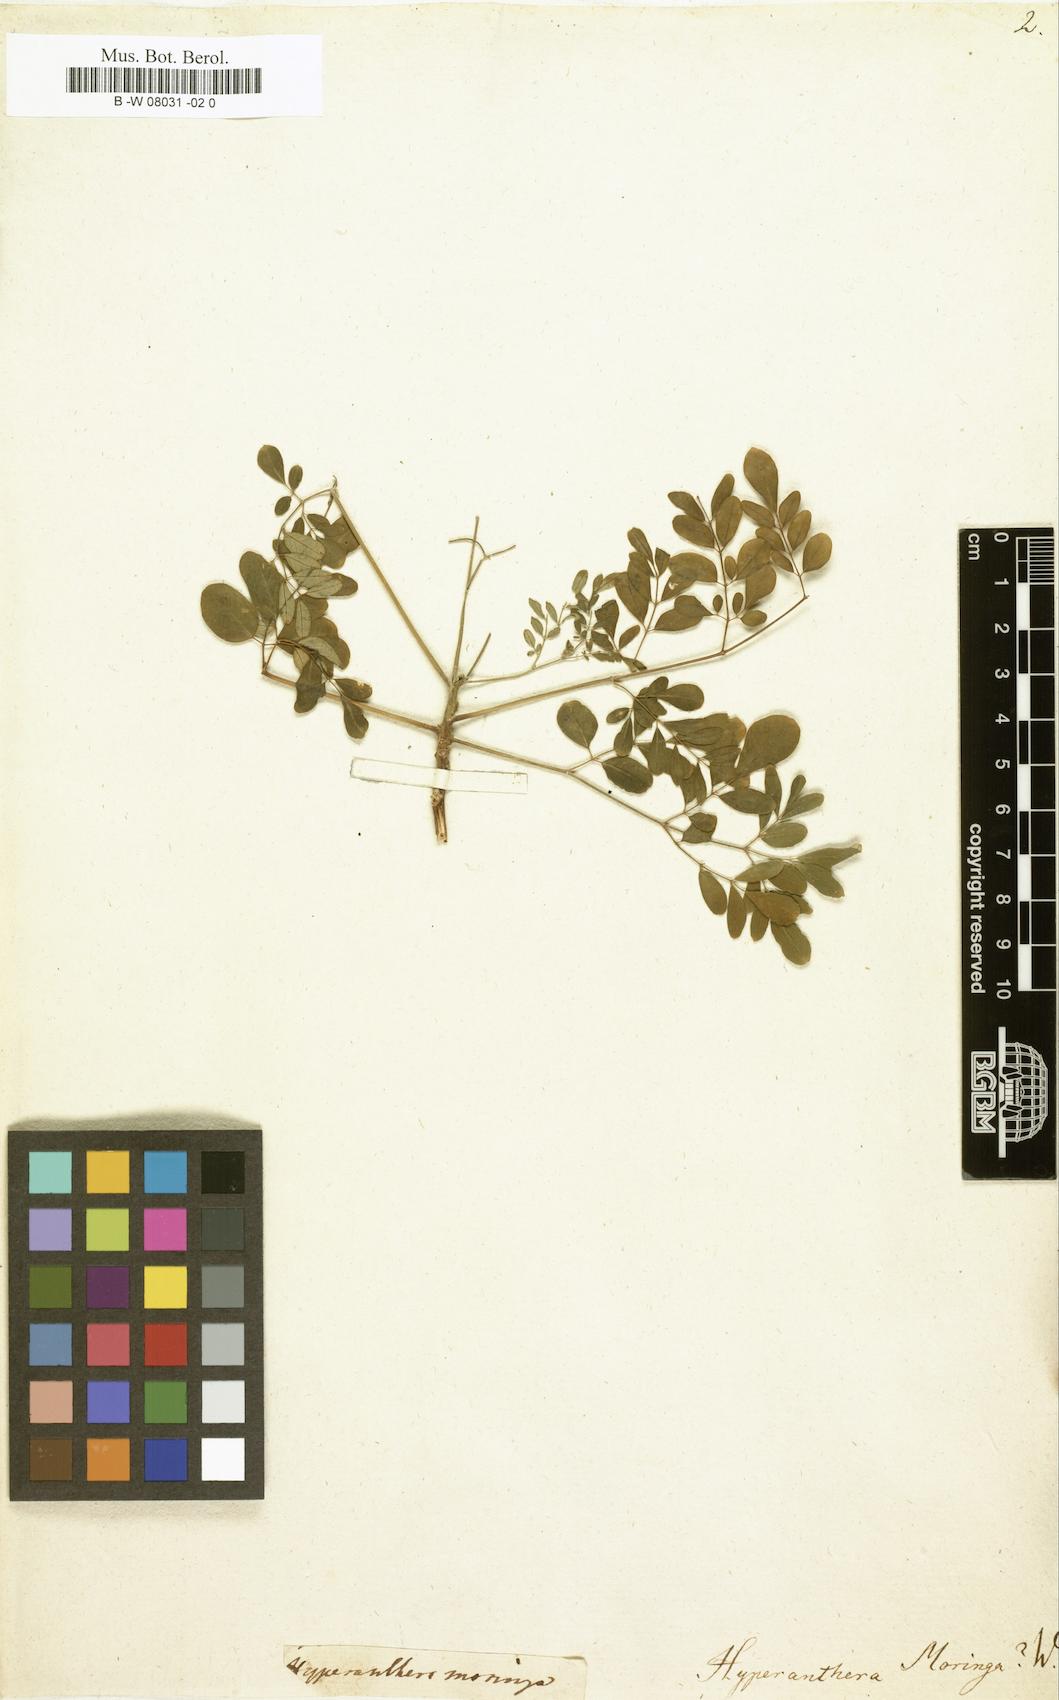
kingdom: Plantae
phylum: Tracheophyta
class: Magnoliopsida
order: Brassicales
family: Moringaceae
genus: Moringa
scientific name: Moringa oleifera
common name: Horseradish-tree
